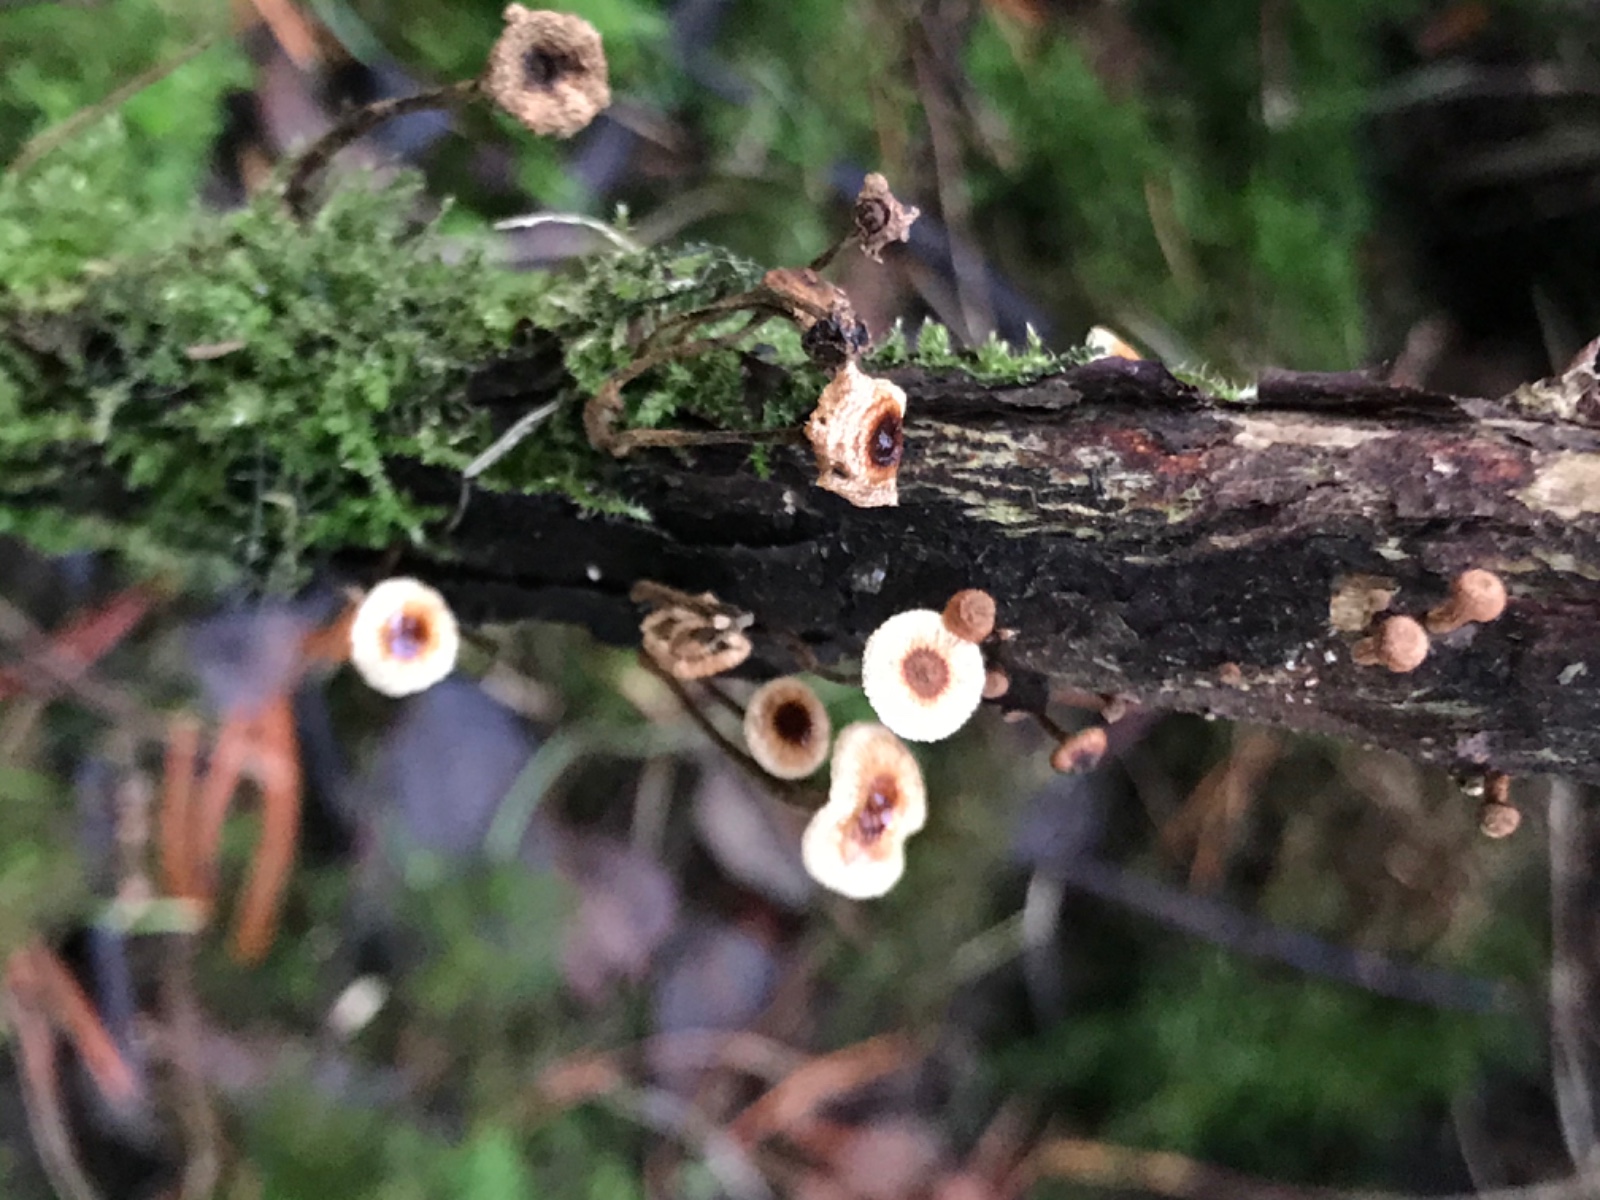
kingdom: Fungi
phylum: Basidiomycota
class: Agaricomycetes
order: Agaricales
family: Marasmiaceae
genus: Crinipellis
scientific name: Crinipellis scabella
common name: børstefod
